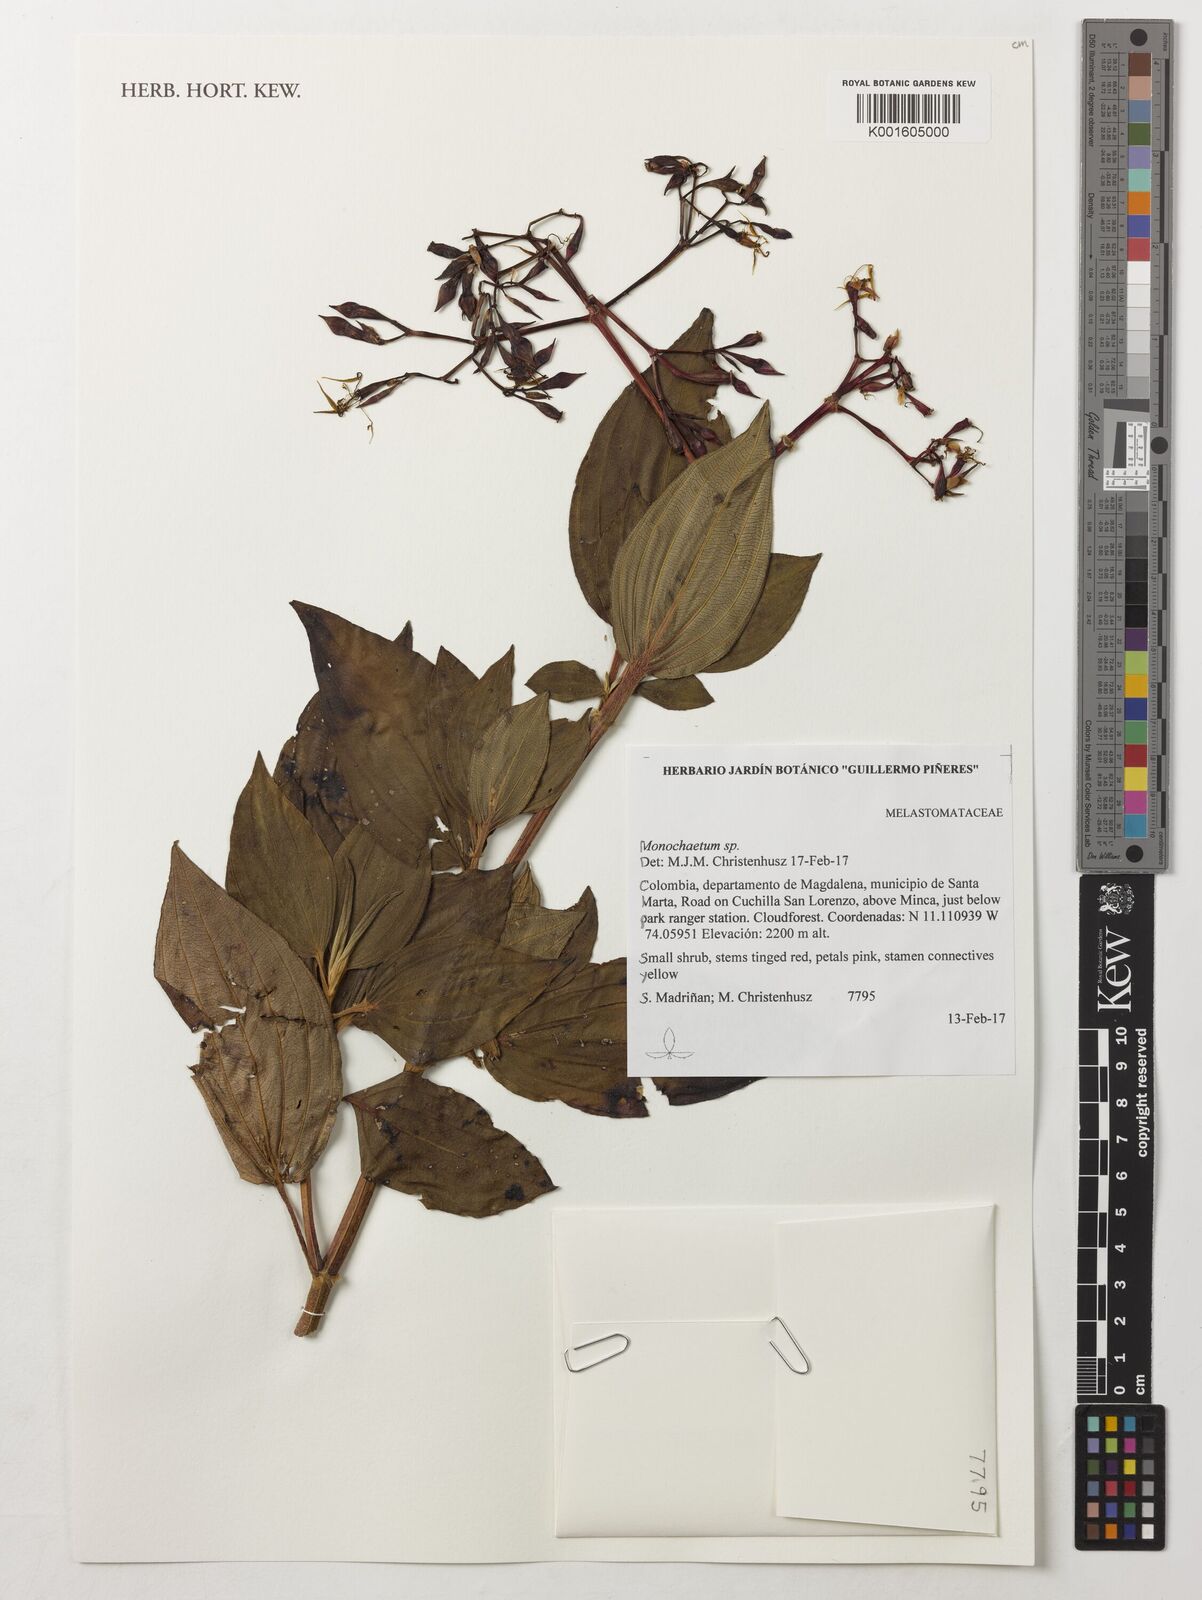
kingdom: Plantae
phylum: Tracheophyta
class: Magnoliopsida
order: Myrtales
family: Melastomataceae
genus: Monochaetum
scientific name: Monochaetum
